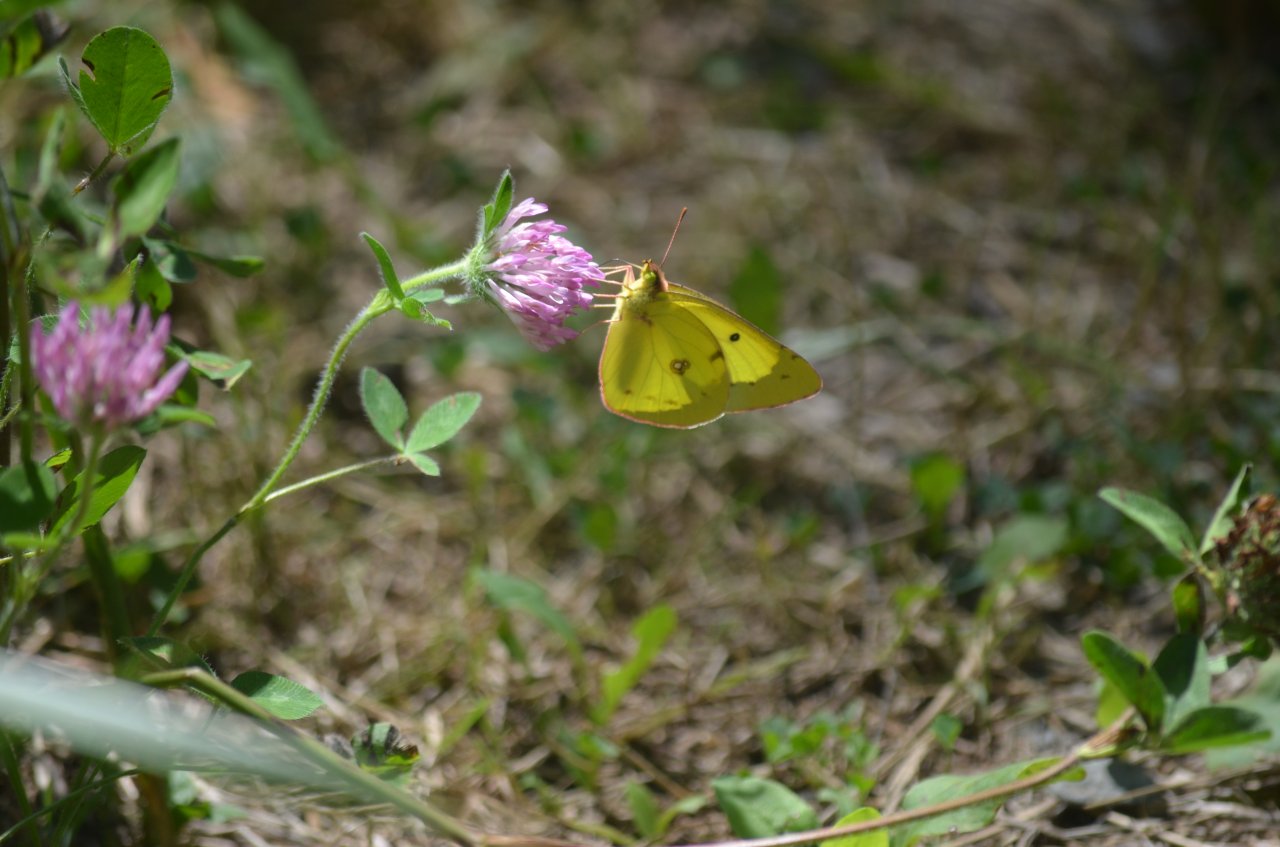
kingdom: Animalia
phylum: Arthropoda
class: Insecta
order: Lepidoptera
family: Pieridae
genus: Colias
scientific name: Colias philodice
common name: Clouded Sulphur
